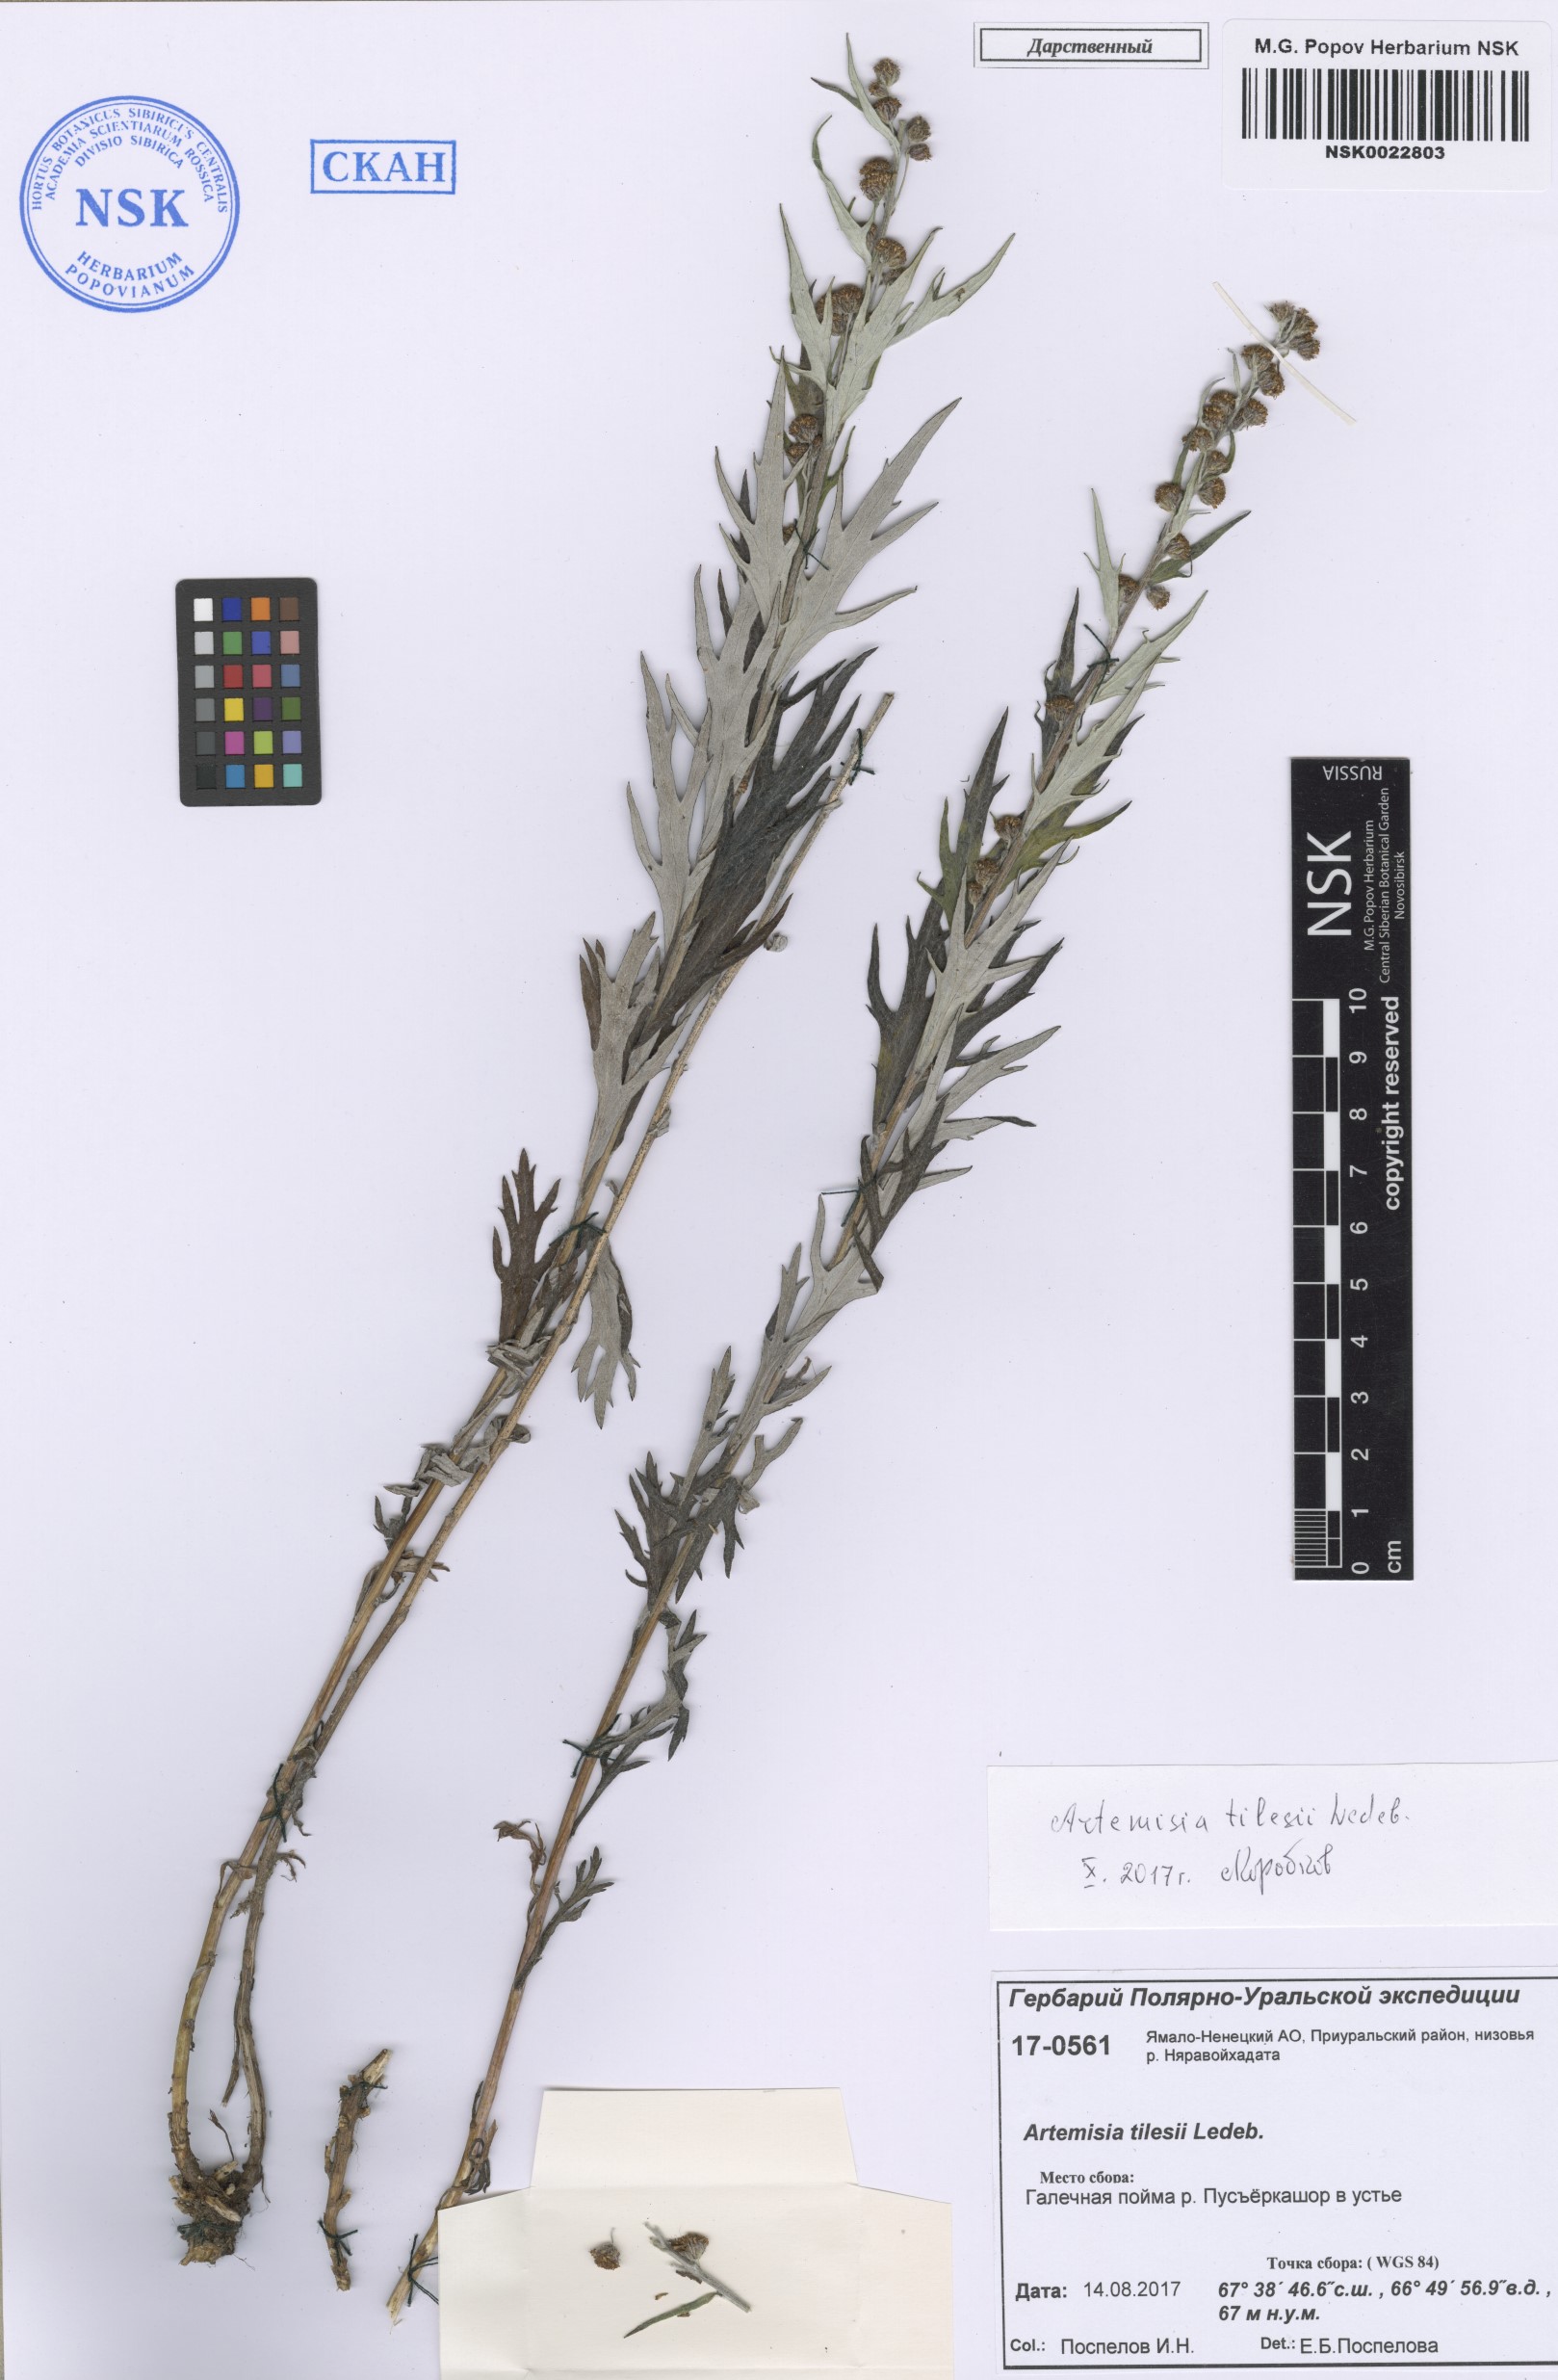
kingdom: Plantae
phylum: Tracheophyta
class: Magnoliopsida
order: Asterales
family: Asteraceae
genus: Artemisia
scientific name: Artemisia tilesii
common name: Aleutian mugwort
